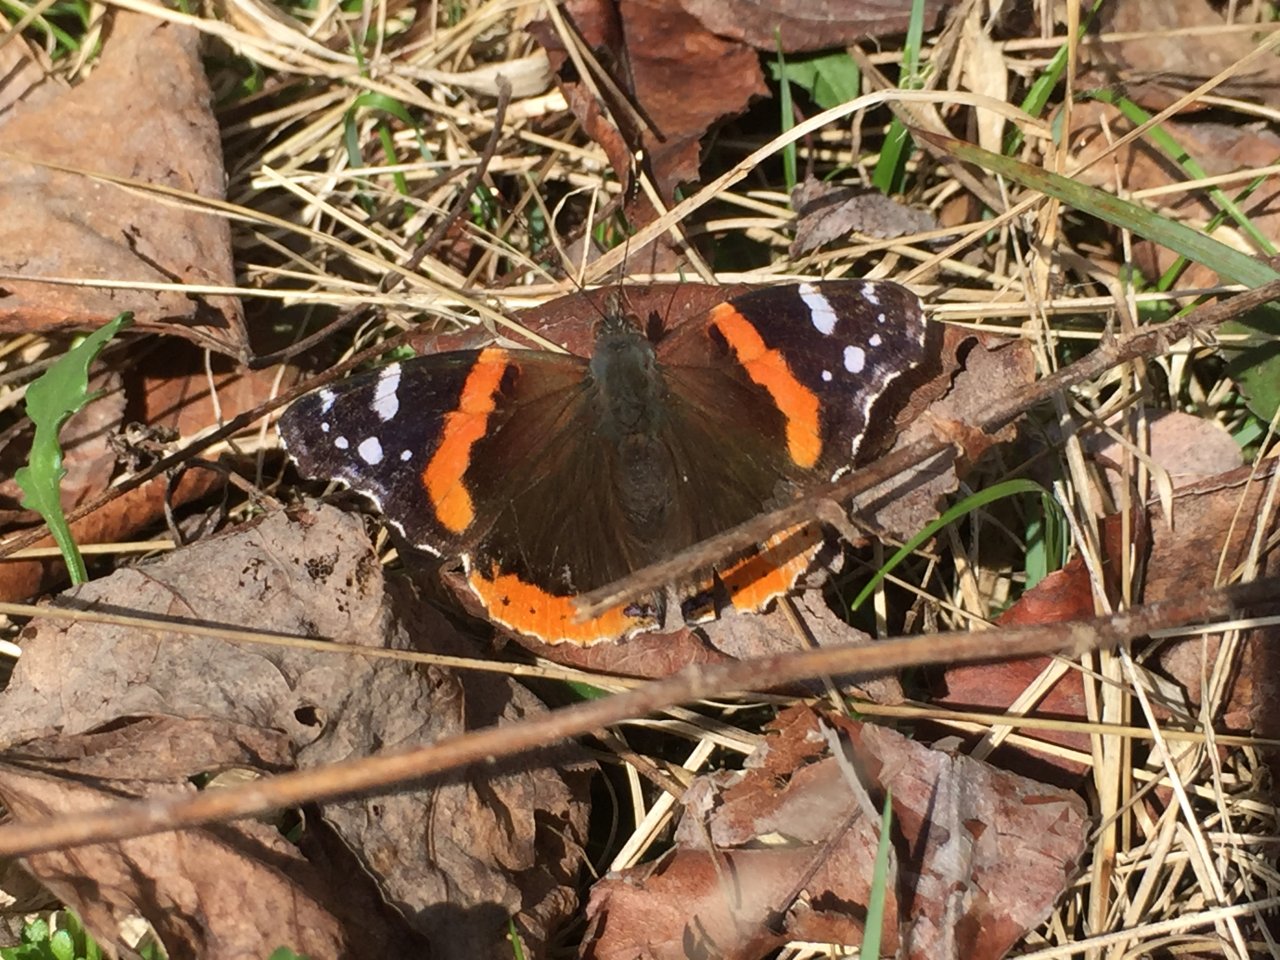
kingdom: Animalia
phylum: Arthropoda
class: Insecta
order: Lepidoptera
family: Nymphalidae
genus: Vanessa
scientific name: Vanessa atalanta
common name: Red Admiral
